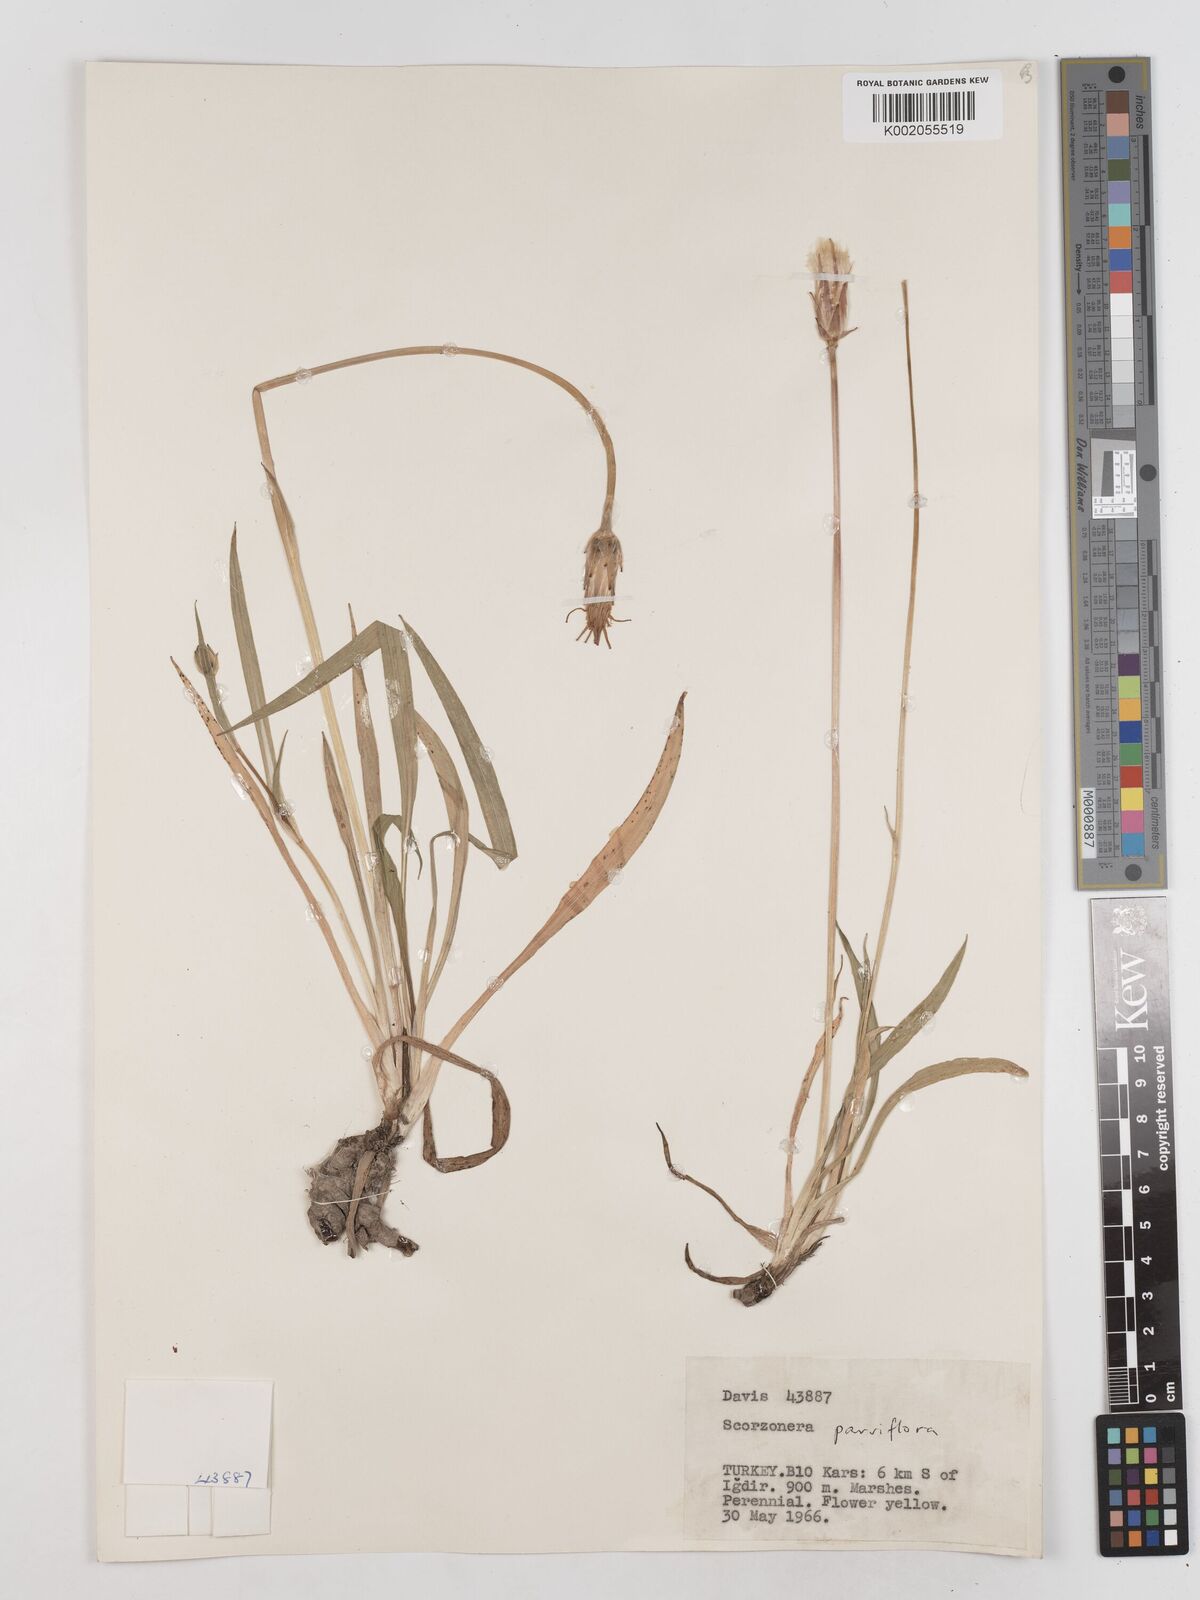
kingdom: Plantae
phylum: Tracheophyta
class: Magnoliopsida
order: Asterales
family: Asteraceae
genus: Scorzonera
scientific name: Scorzonera parviflora
